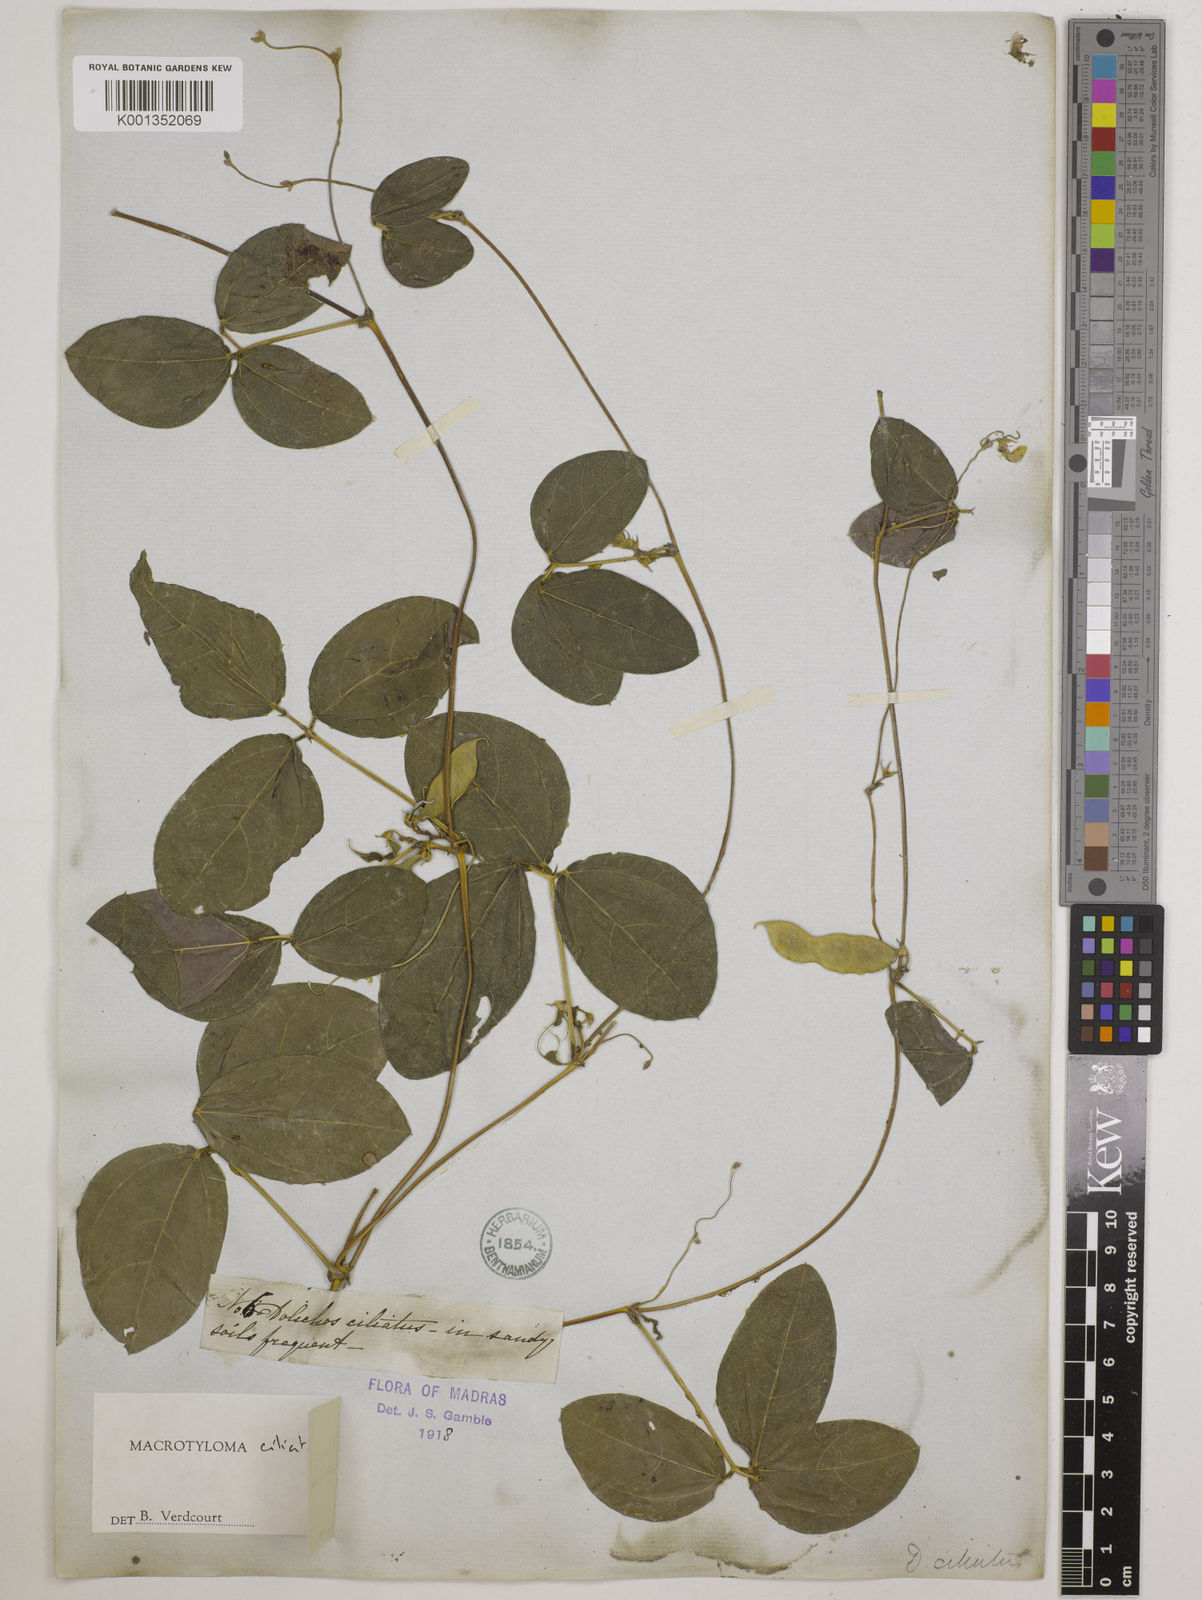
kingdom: Plantae
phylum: Tracheophyta
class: Magnoliopsida
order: Fabales
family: Fabaceae
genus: Macrotyloma
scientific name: Macrotyloma ciliatum
